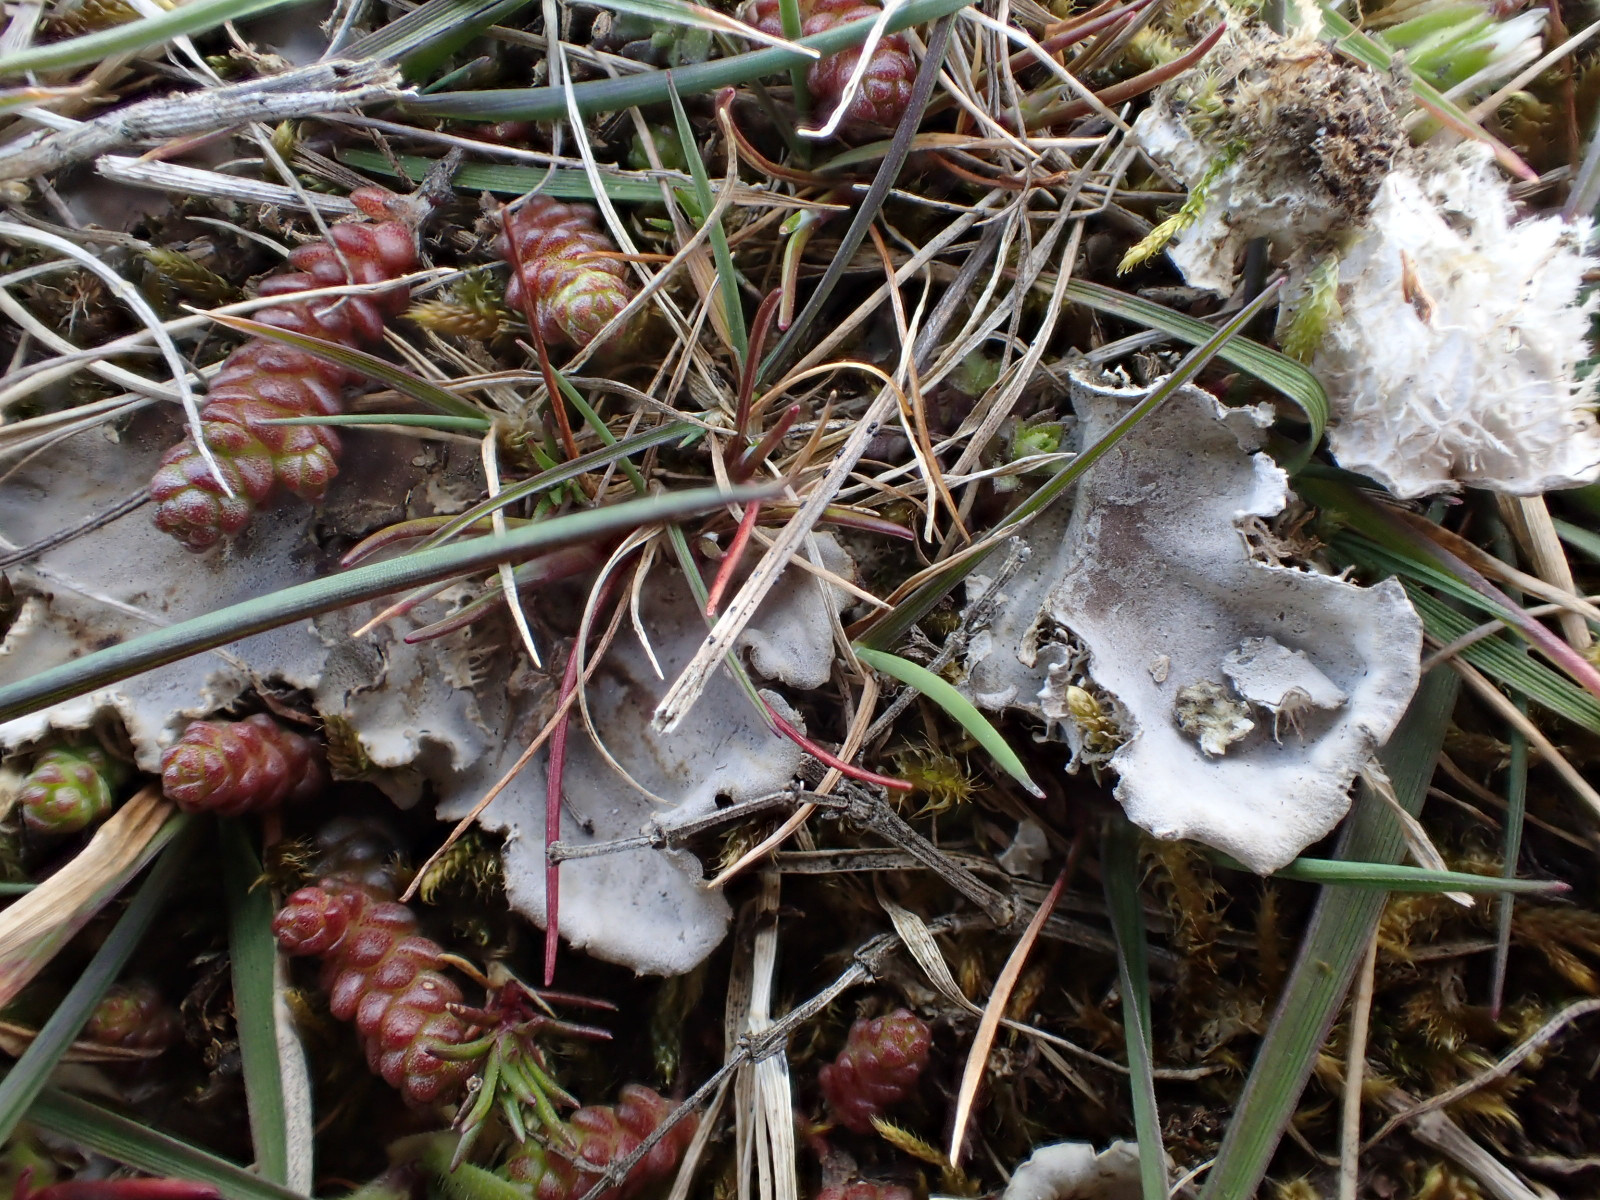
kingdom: Fungi
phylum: Ascomycota
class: Lecanoromycetes
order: Peltigerales
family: Peltigeraceae
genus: Peltigera
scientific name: Peltigera membranacea
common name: tynd skjoldlav
